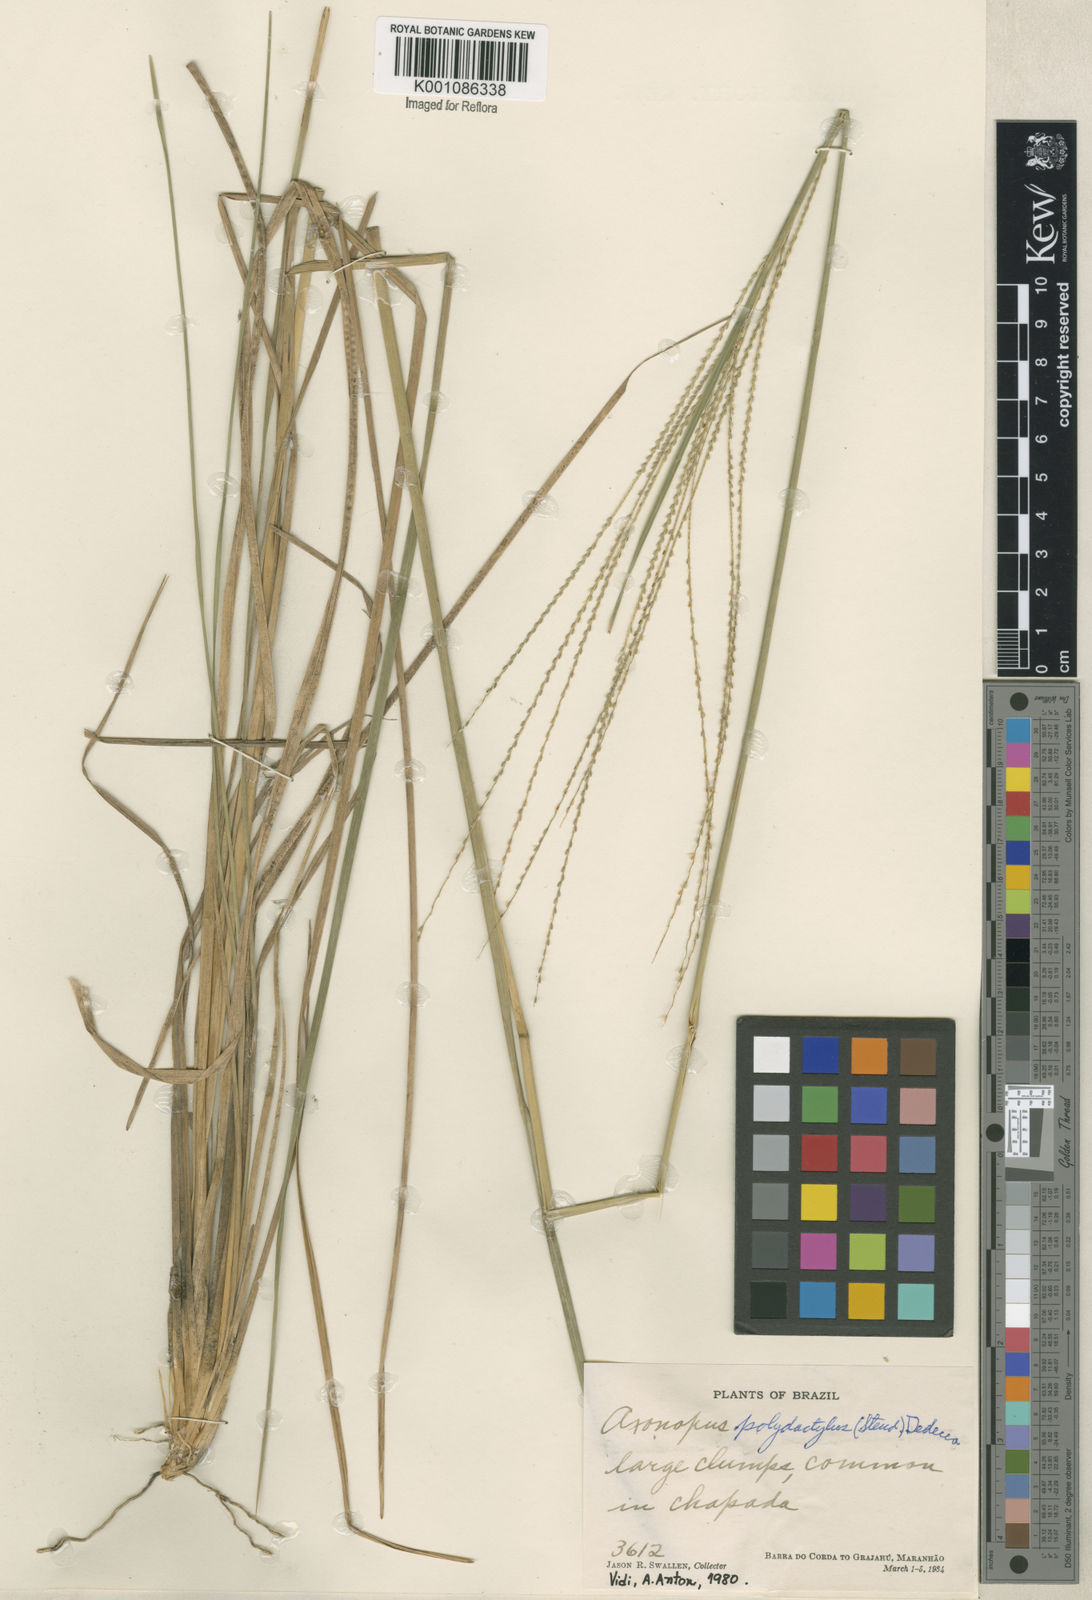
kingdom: Plantae
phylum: Tracheophyta
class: Liliopsida
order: Poales
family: Poaceae
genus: Axonopus
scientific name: Axonopus polydactylus
